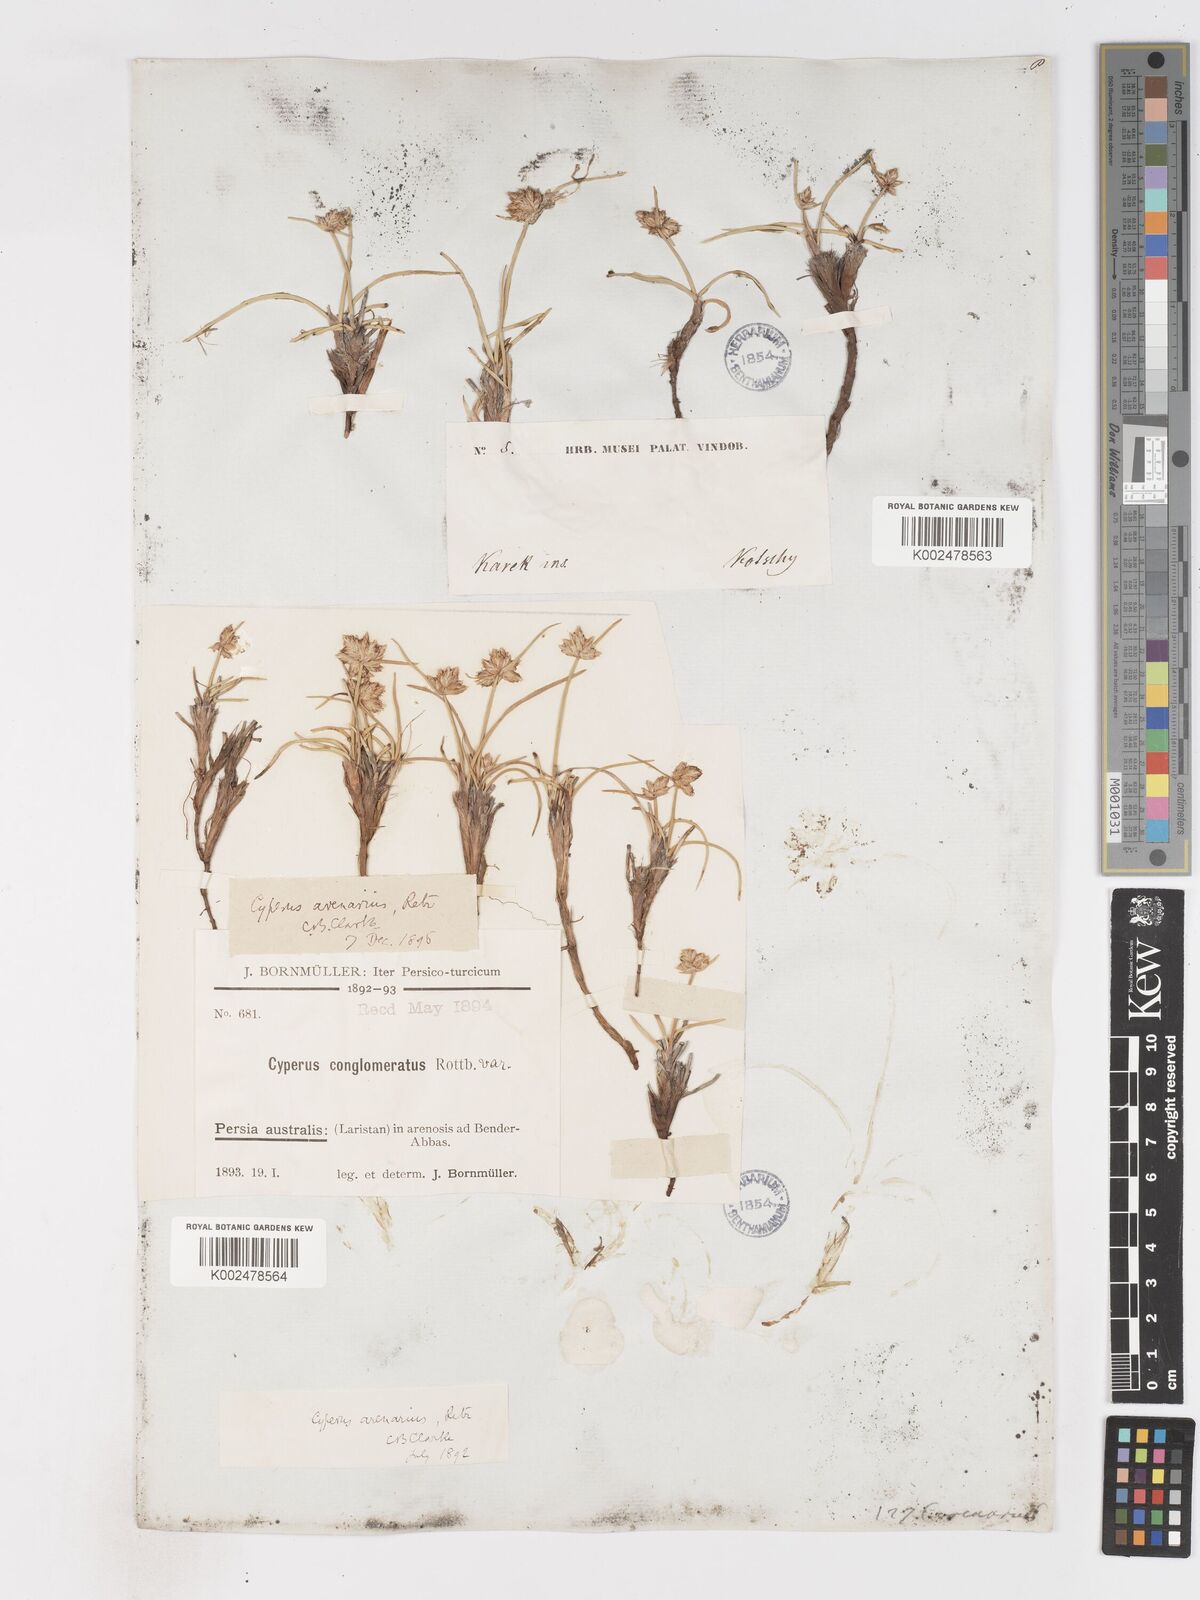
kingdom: Plantae
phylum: Tracheophyta
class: Liliopsida
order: Poales
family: Cyperaceae
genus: Cyperus
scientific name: Cyperus arenarius
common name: Dwarf sedge
